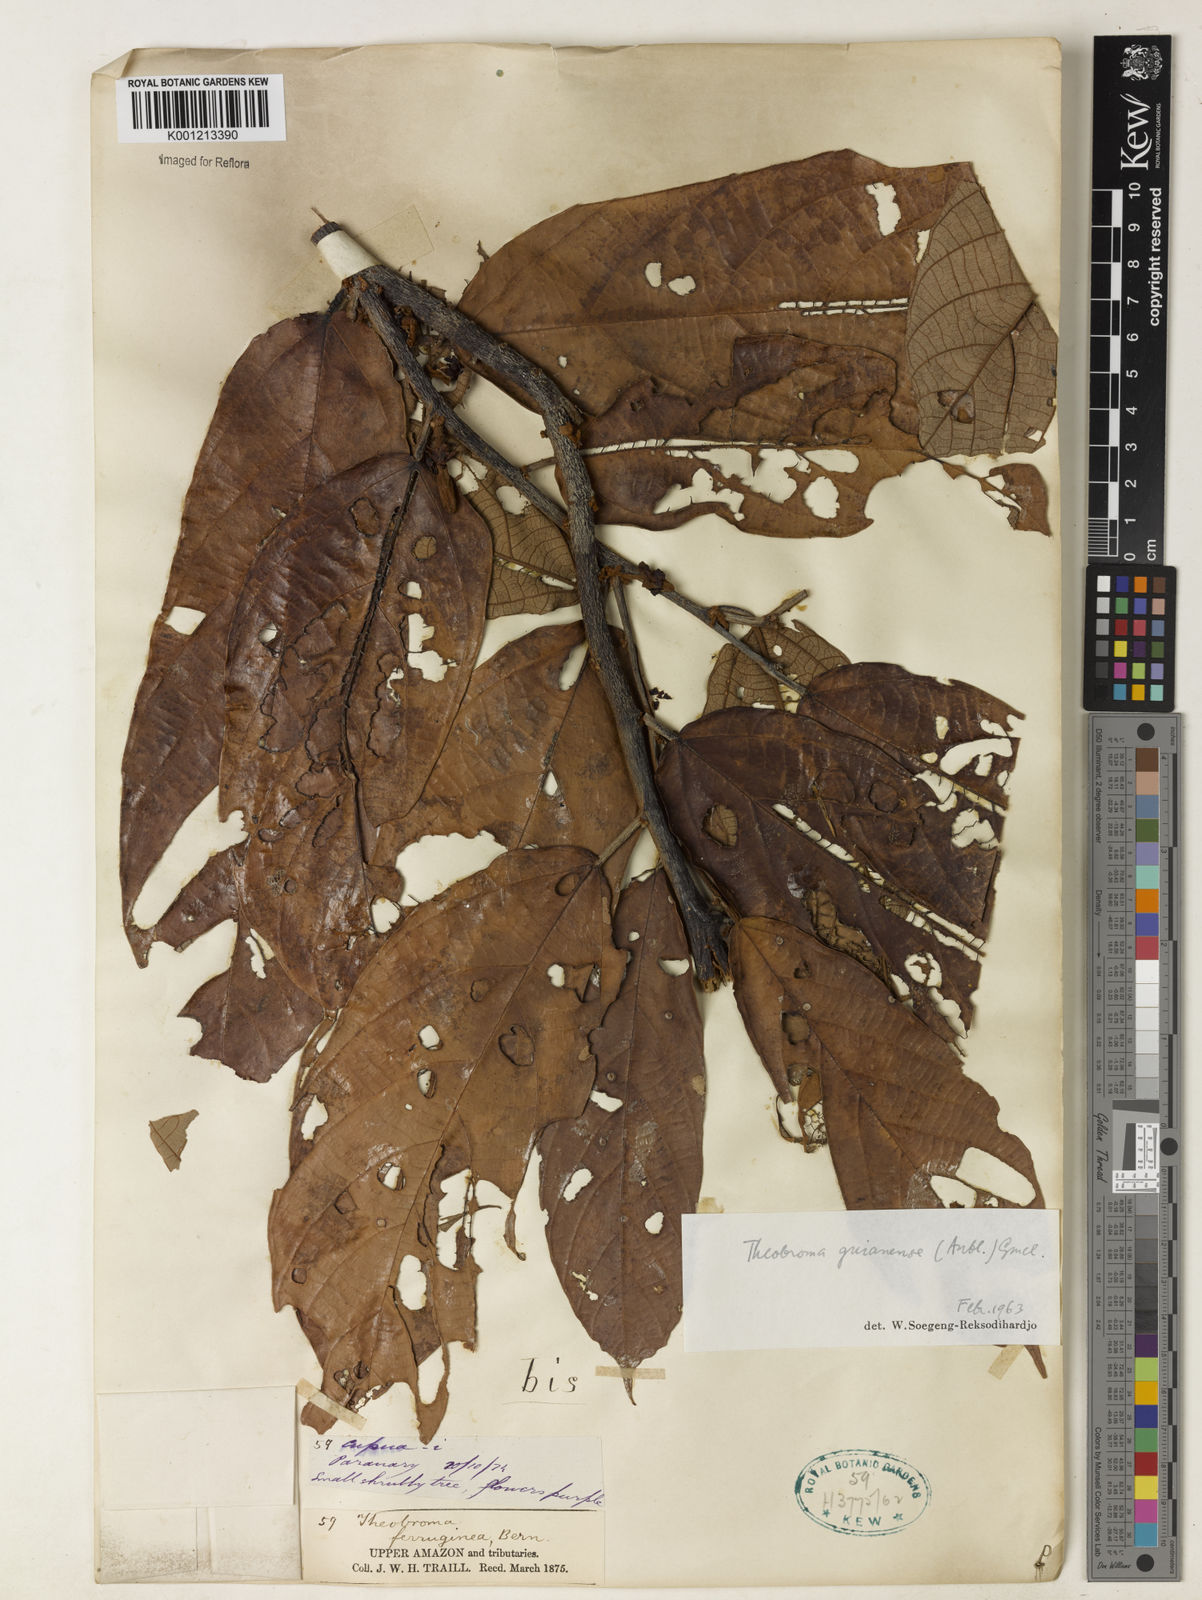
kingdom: Plantae
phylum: Tracheophyta
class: Magnoliopsida
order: Malvales
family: Malvaceae
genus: Theobroma
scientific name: Theobroma subincanum
